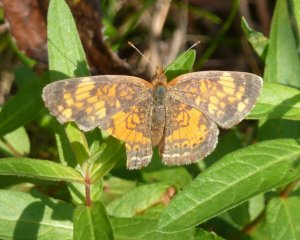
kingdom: Animalia
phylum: Arthropoda
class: Insecta
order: Lepidoptera
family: Nymphalidae
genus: Phyciodes
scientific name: Phyciodes tharos
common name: Northern Crescent
